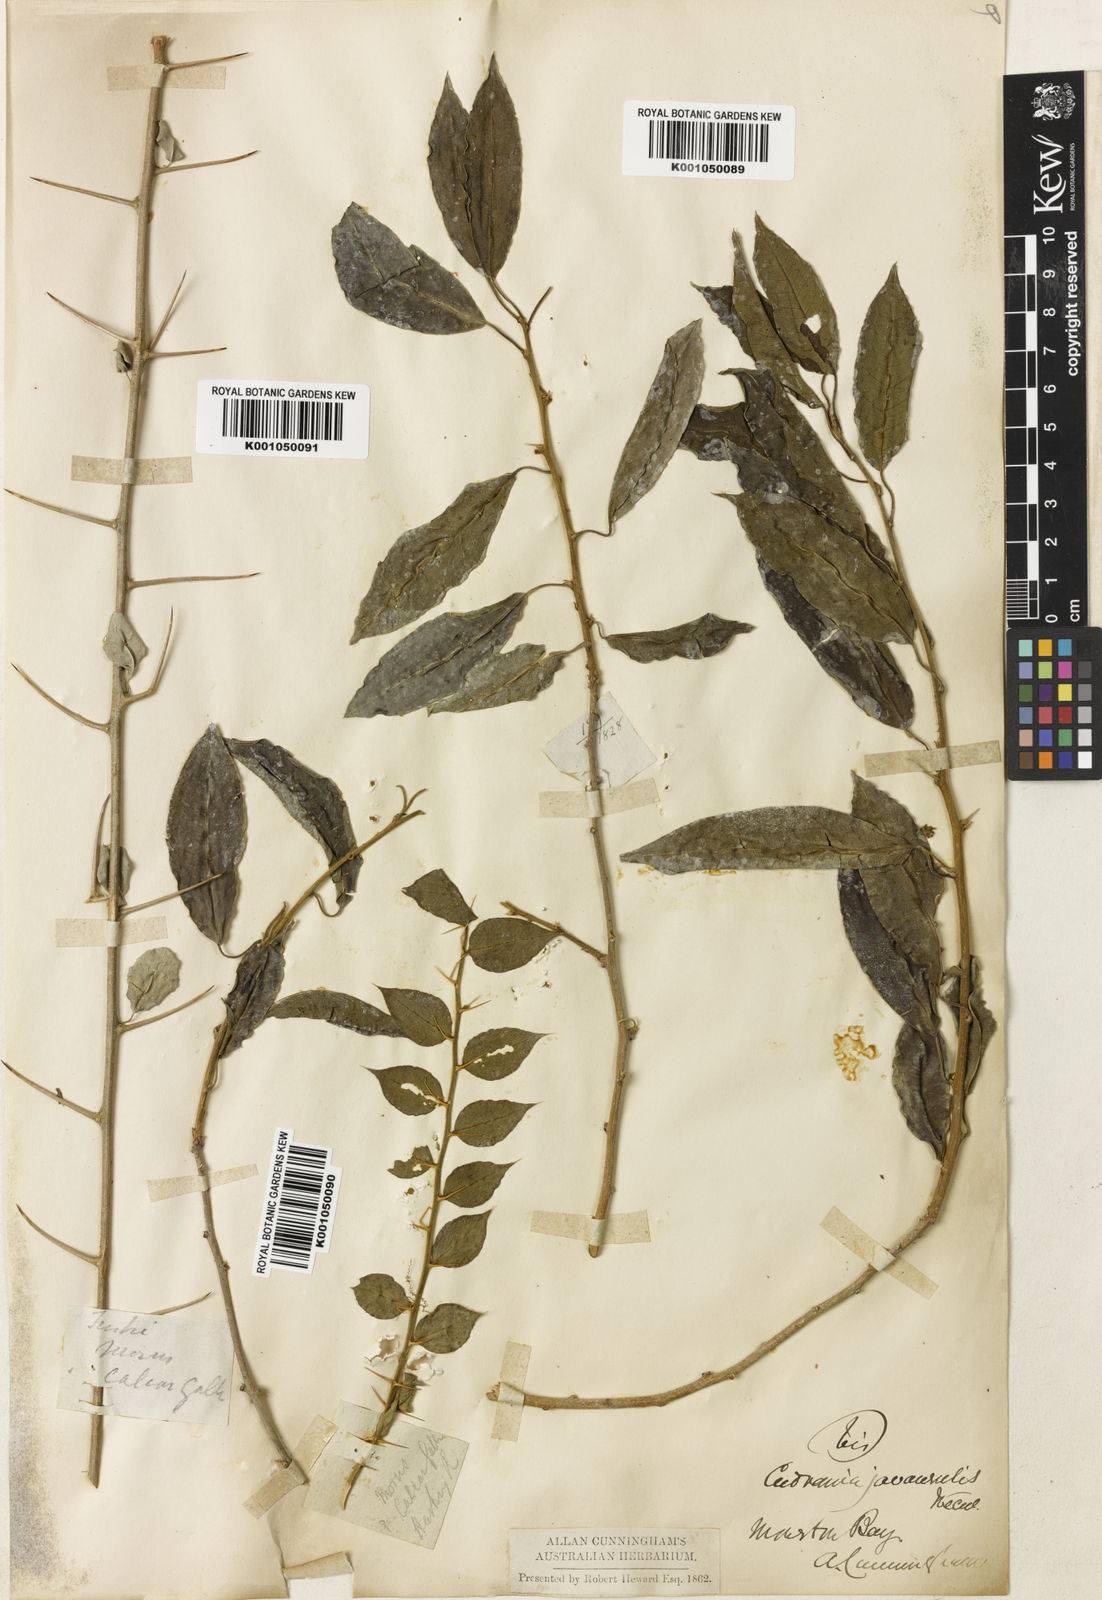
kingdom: Plantae
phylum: Tracheophyta
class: Magnoliopsida
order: Rosales
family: Moraceae
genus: Maclura
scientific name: Maclura cochinchinensis
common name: Cockspurthorn
